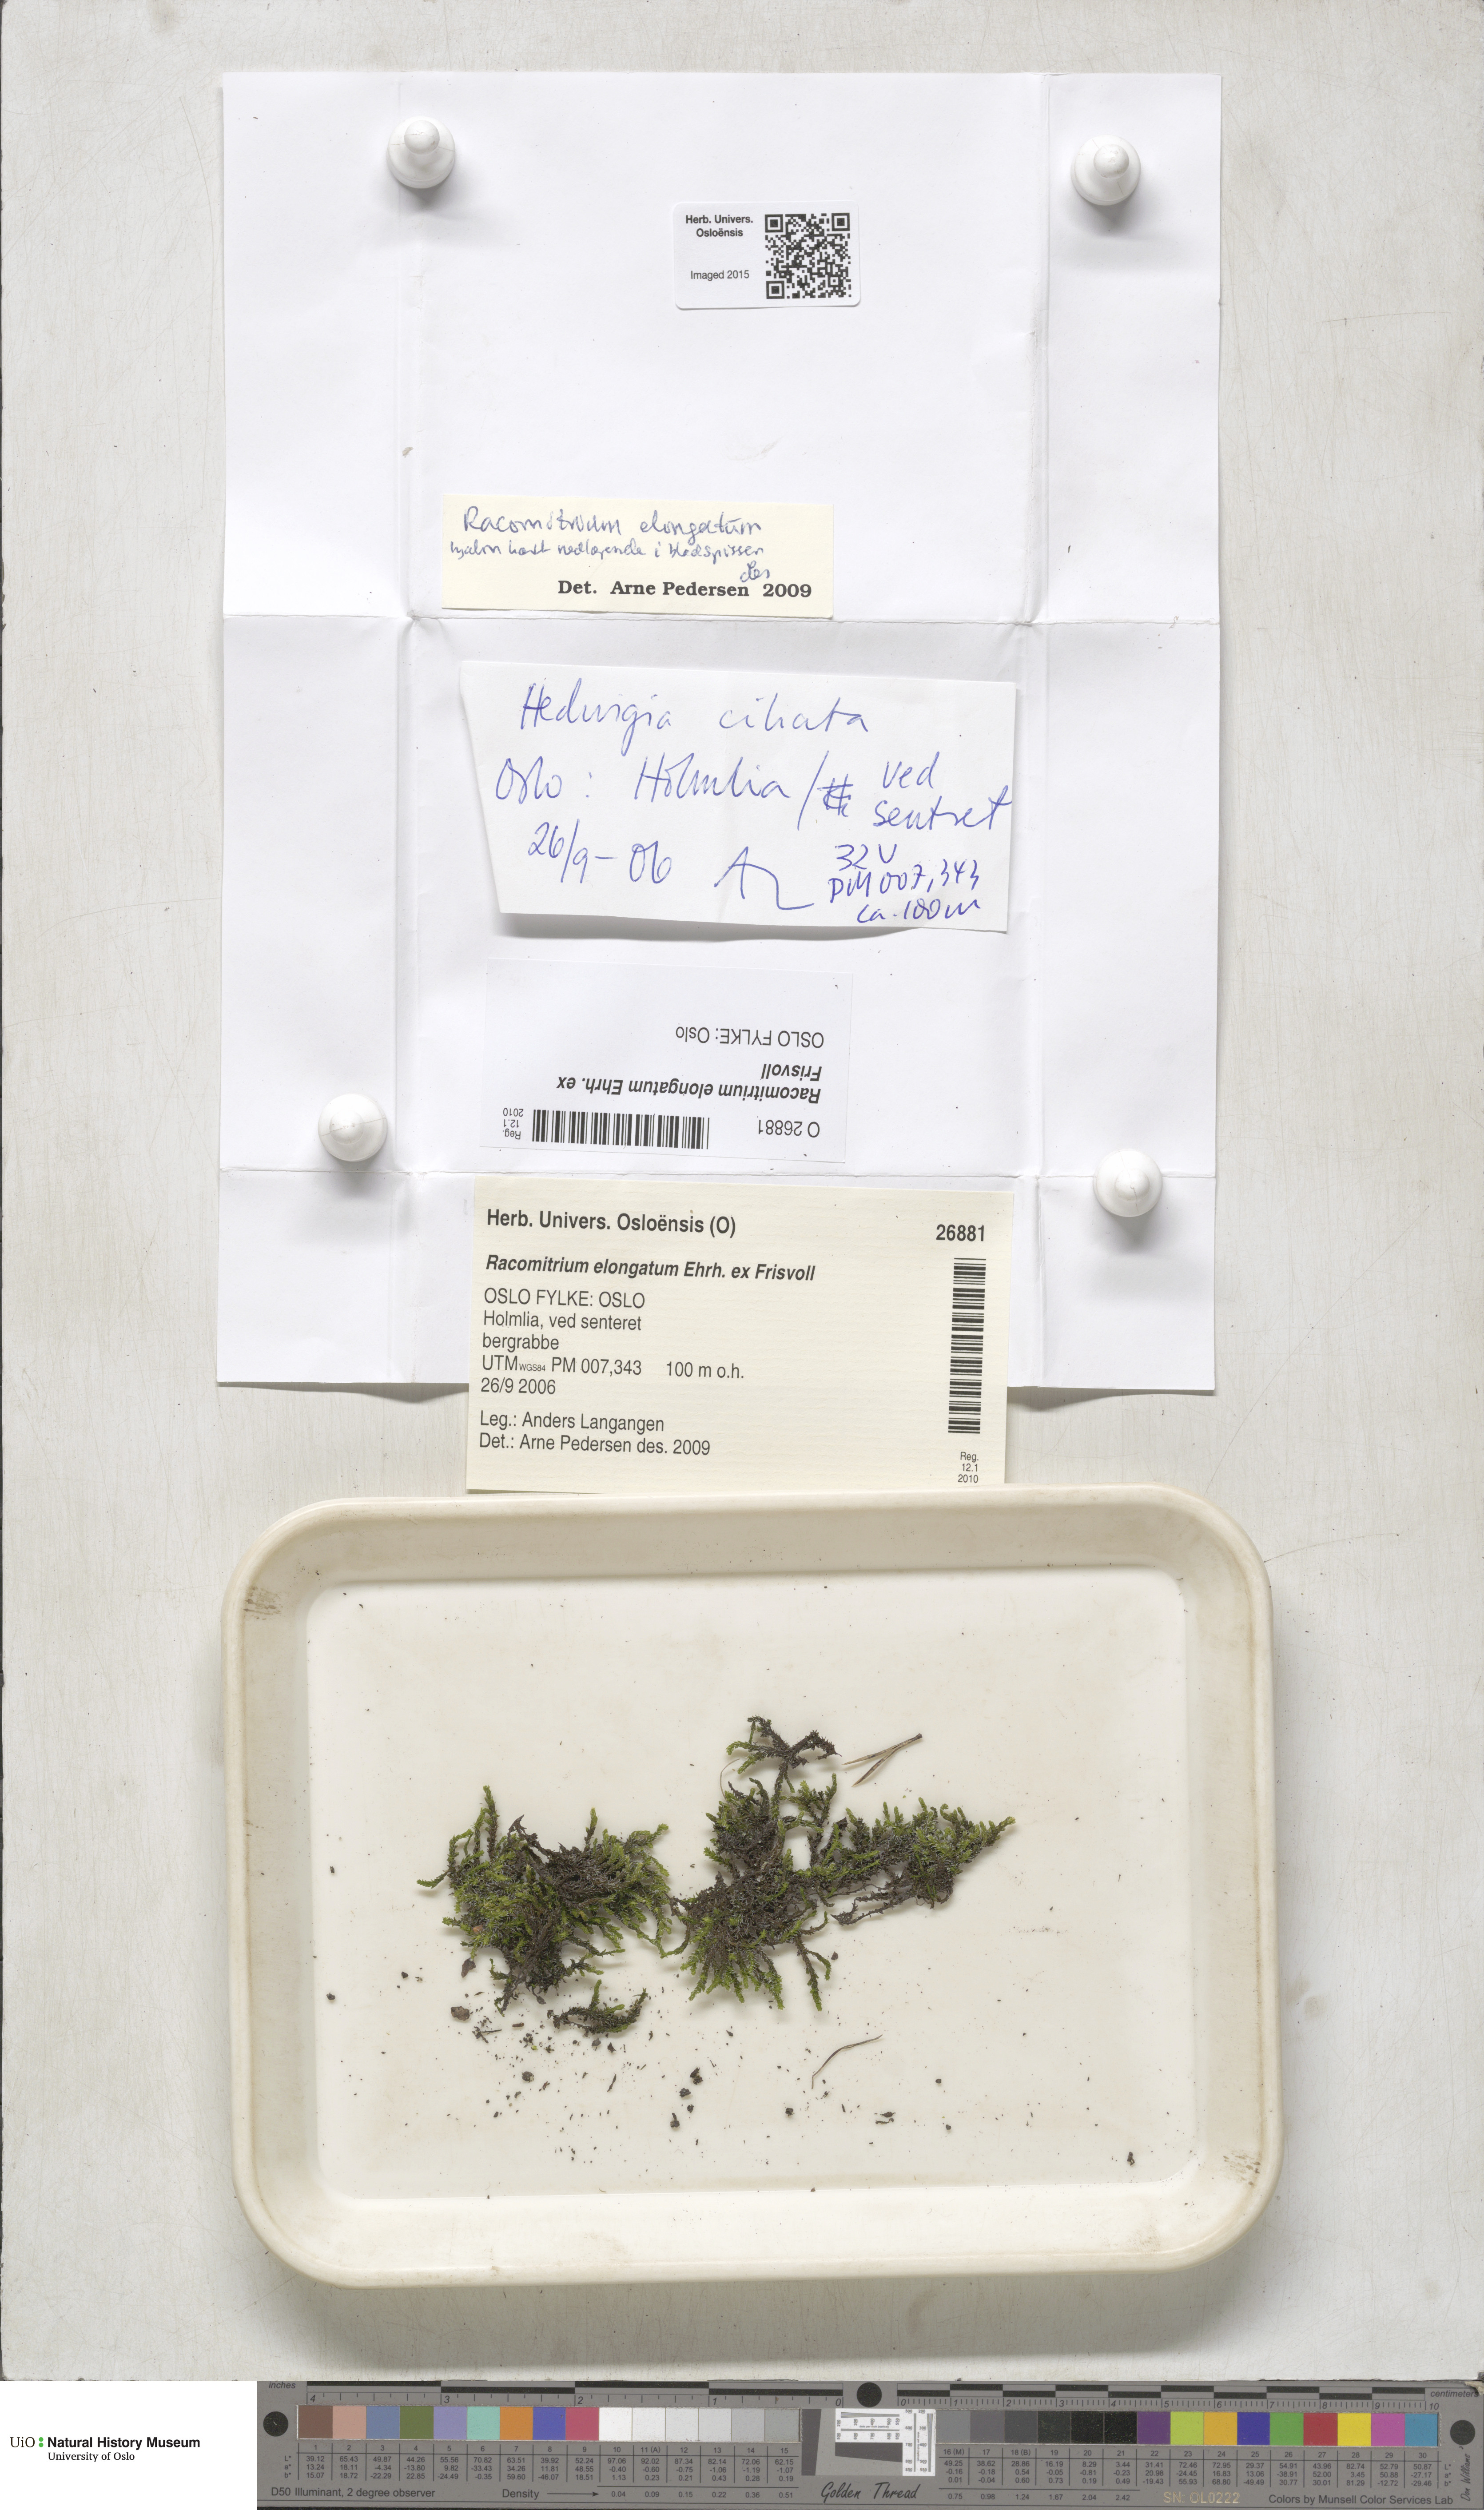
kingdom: Plantae
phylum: Bryophyta
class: Bryopsida
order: Grimmiales
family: Grimmiaceae
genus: Niphotrichum
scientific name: Niphotrichum elongatum
